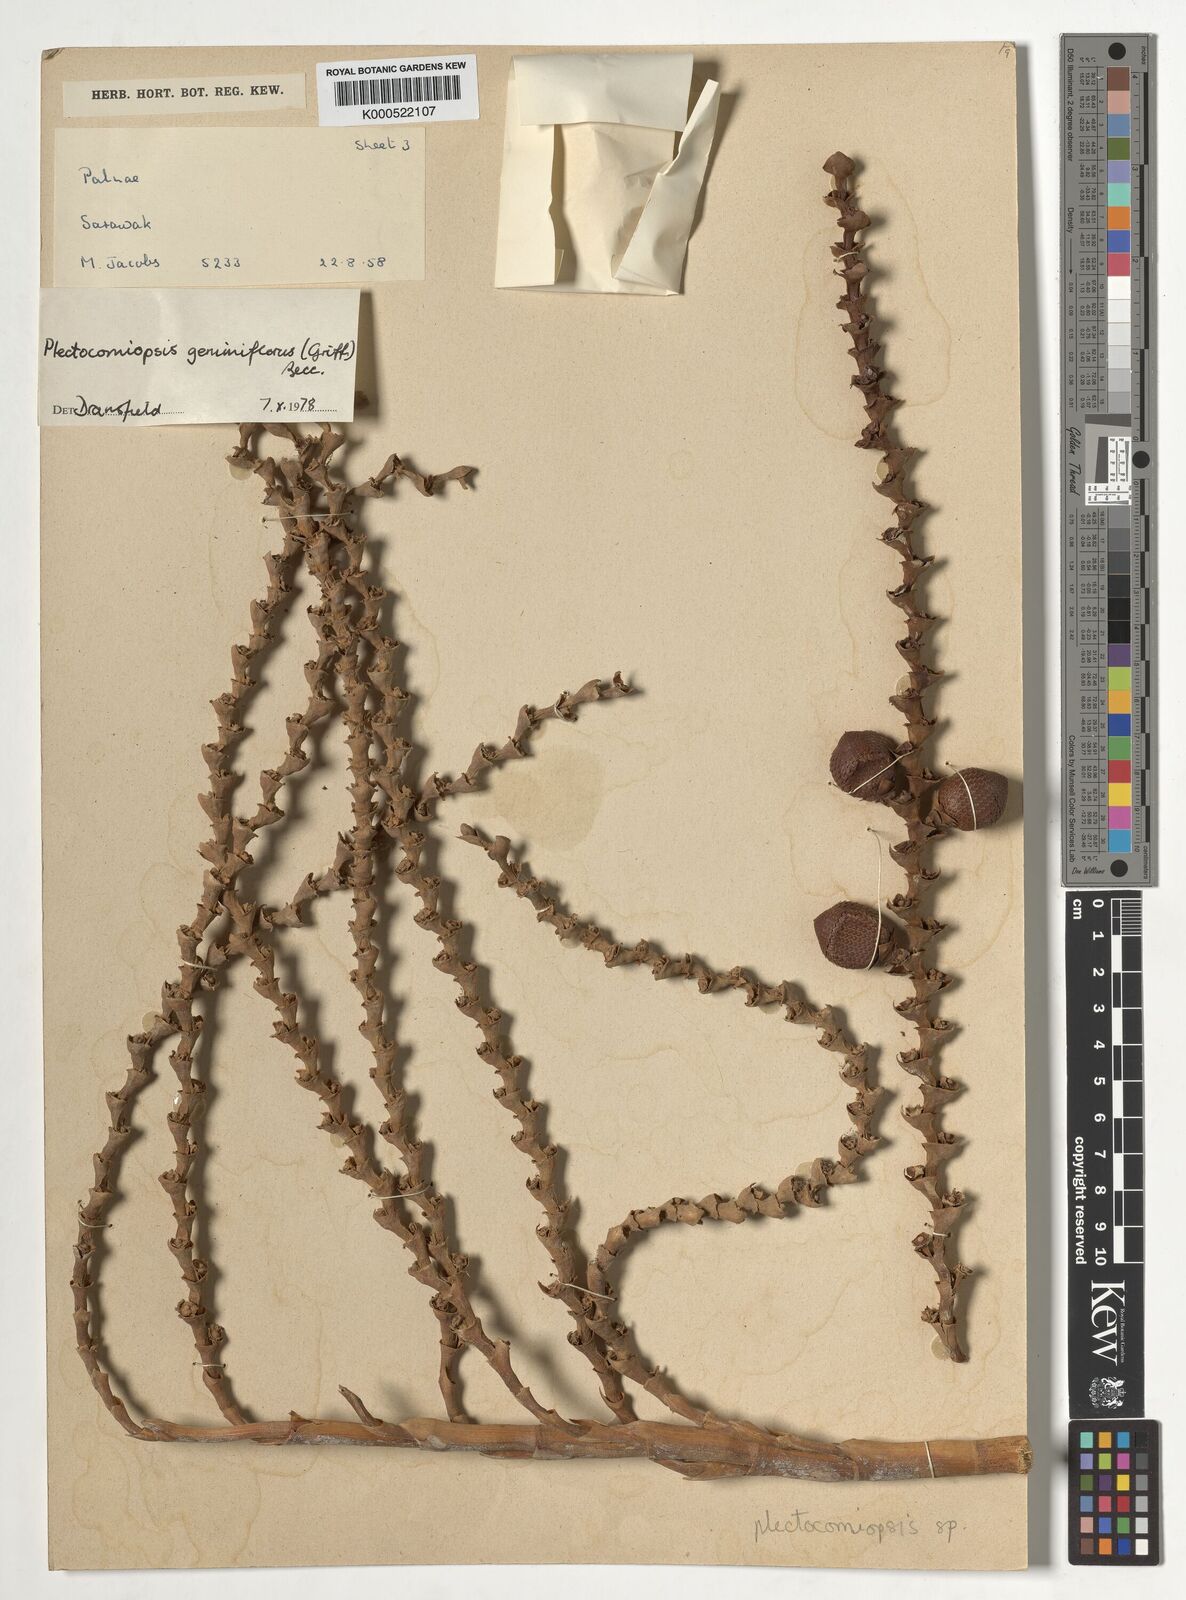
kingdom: Plantae
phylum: Tracheophyta
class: Liliopsida
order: Arecales
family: Arecaceae
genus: Plectocomiopsis
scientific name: Plectocomiopsis geminiflora
